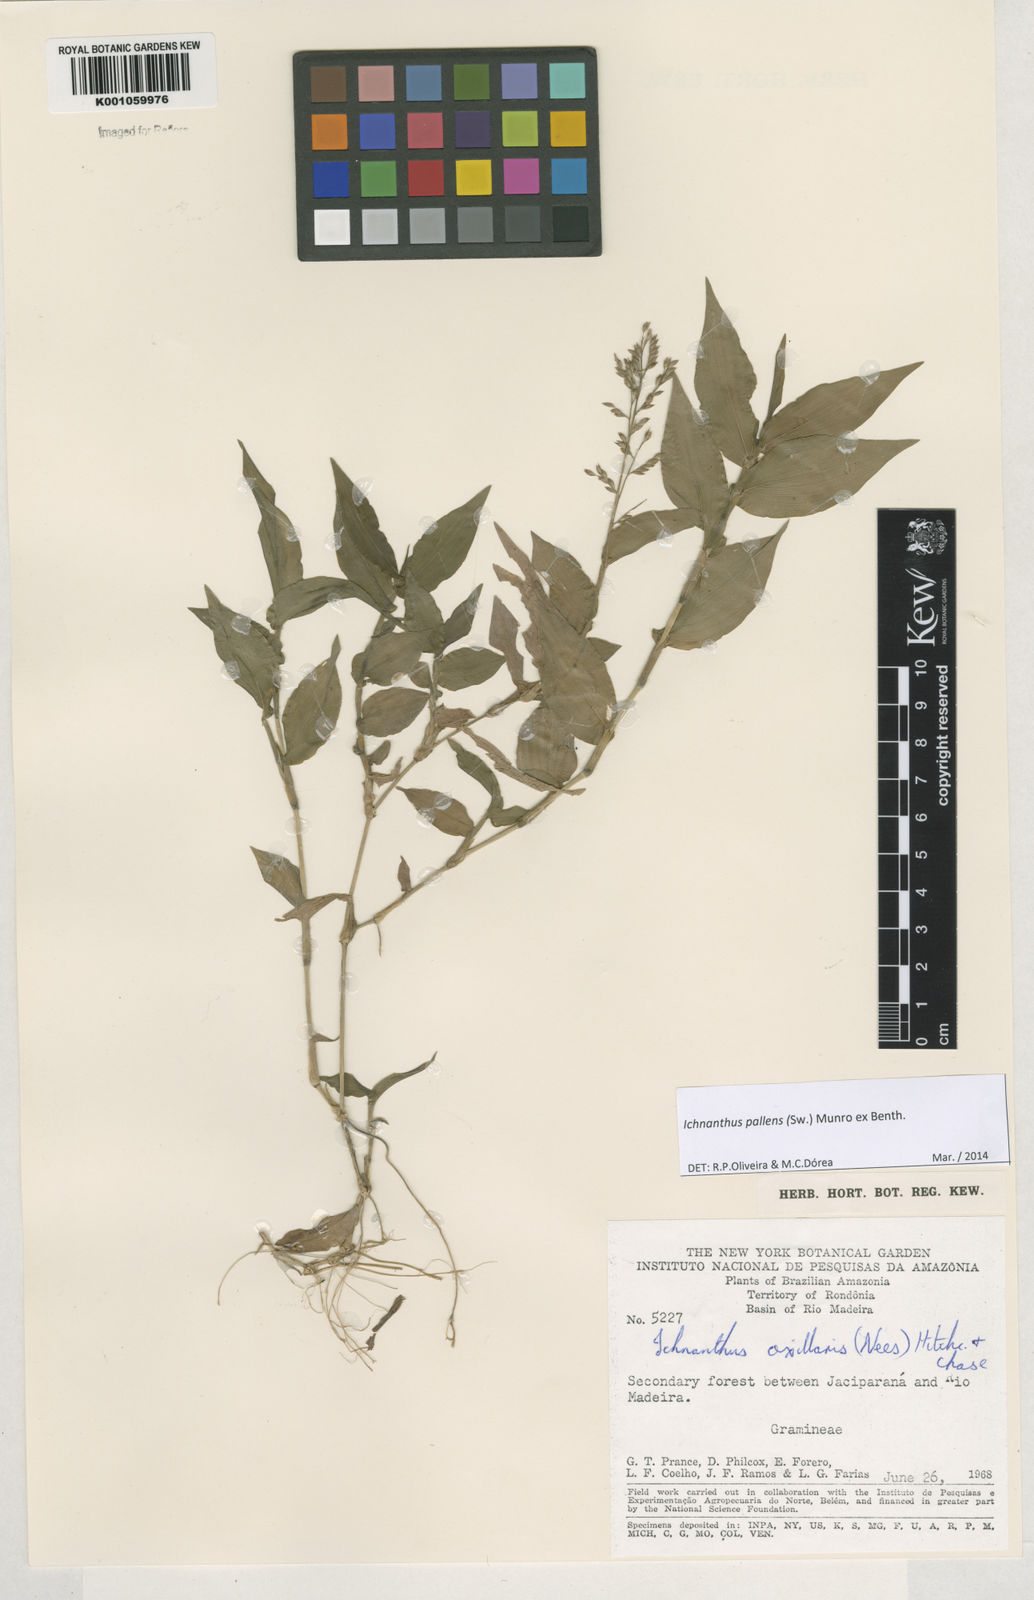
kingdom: Plantae
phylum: Tracheophyta
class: Liliopsida
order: Poales
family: Poaceae
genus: Ichnanthus
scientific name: Ichnanthus pallens
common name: Water grass
